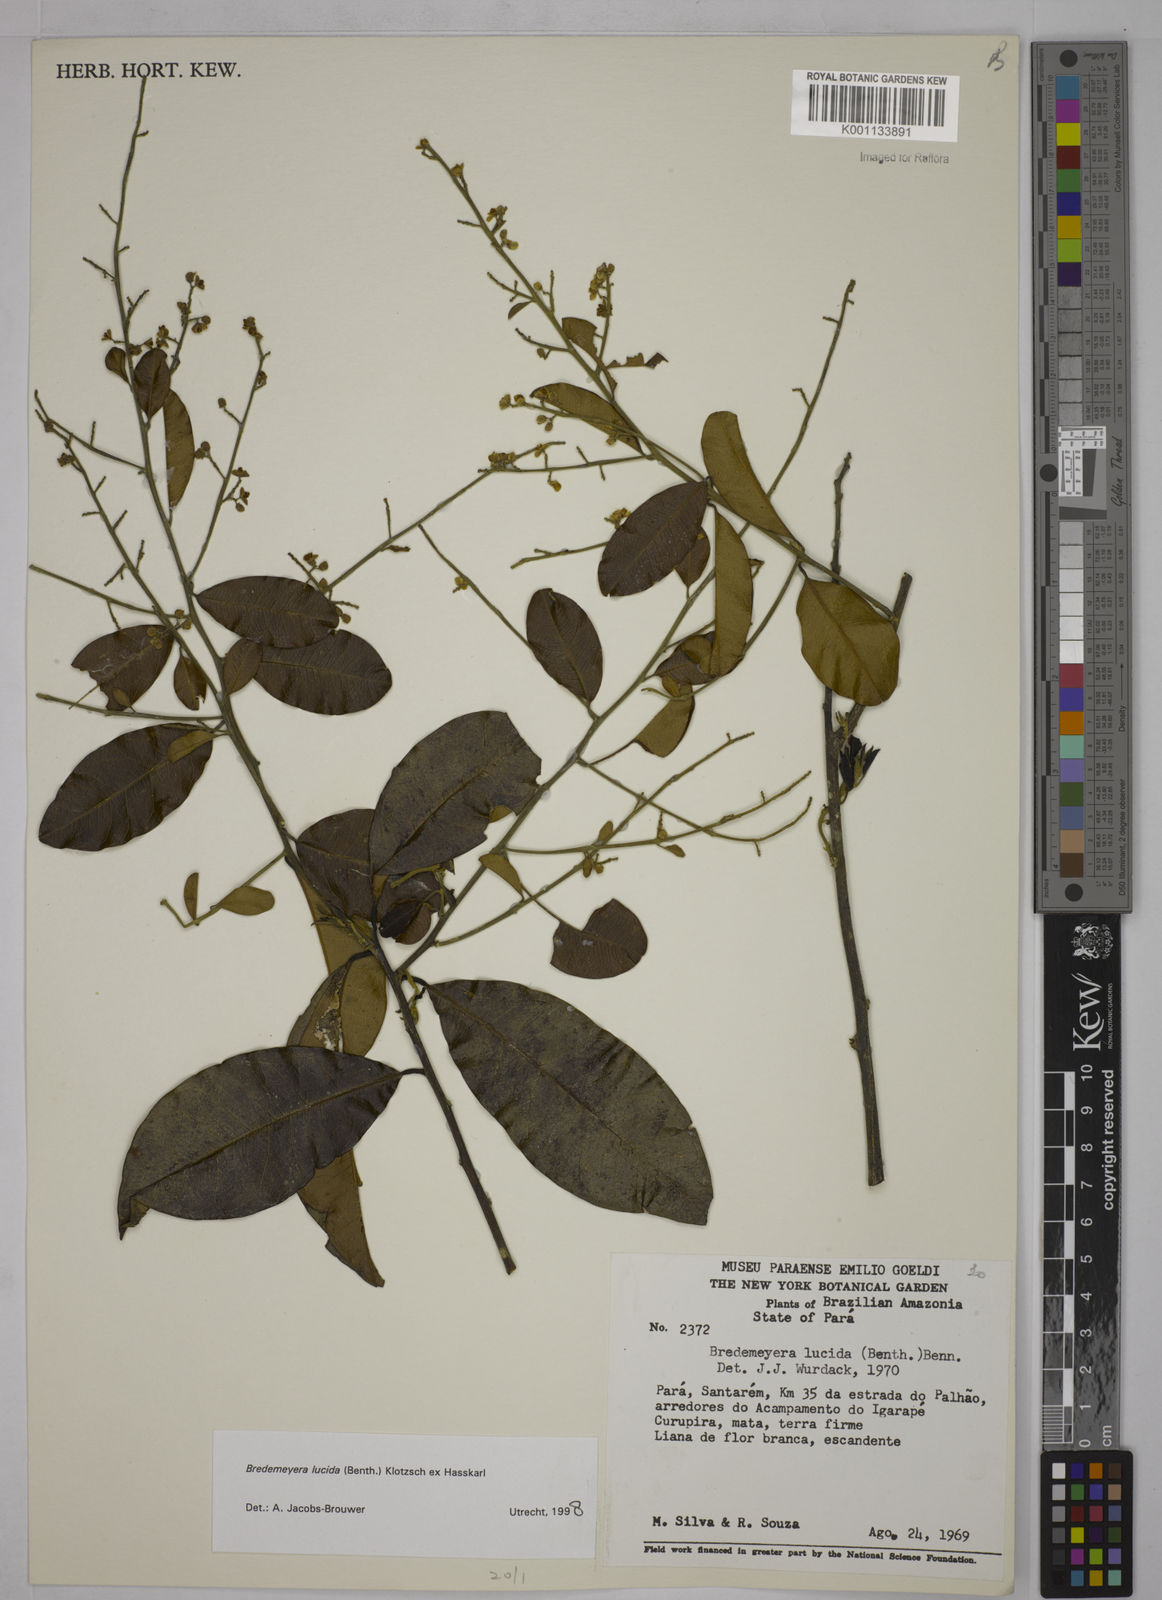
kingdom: Plantae
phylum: Tracheophyta
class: Magnoliopsida
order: Fabales
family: Polygalaceae
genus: Bredemeyera
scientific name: Bredemeyera lucida
